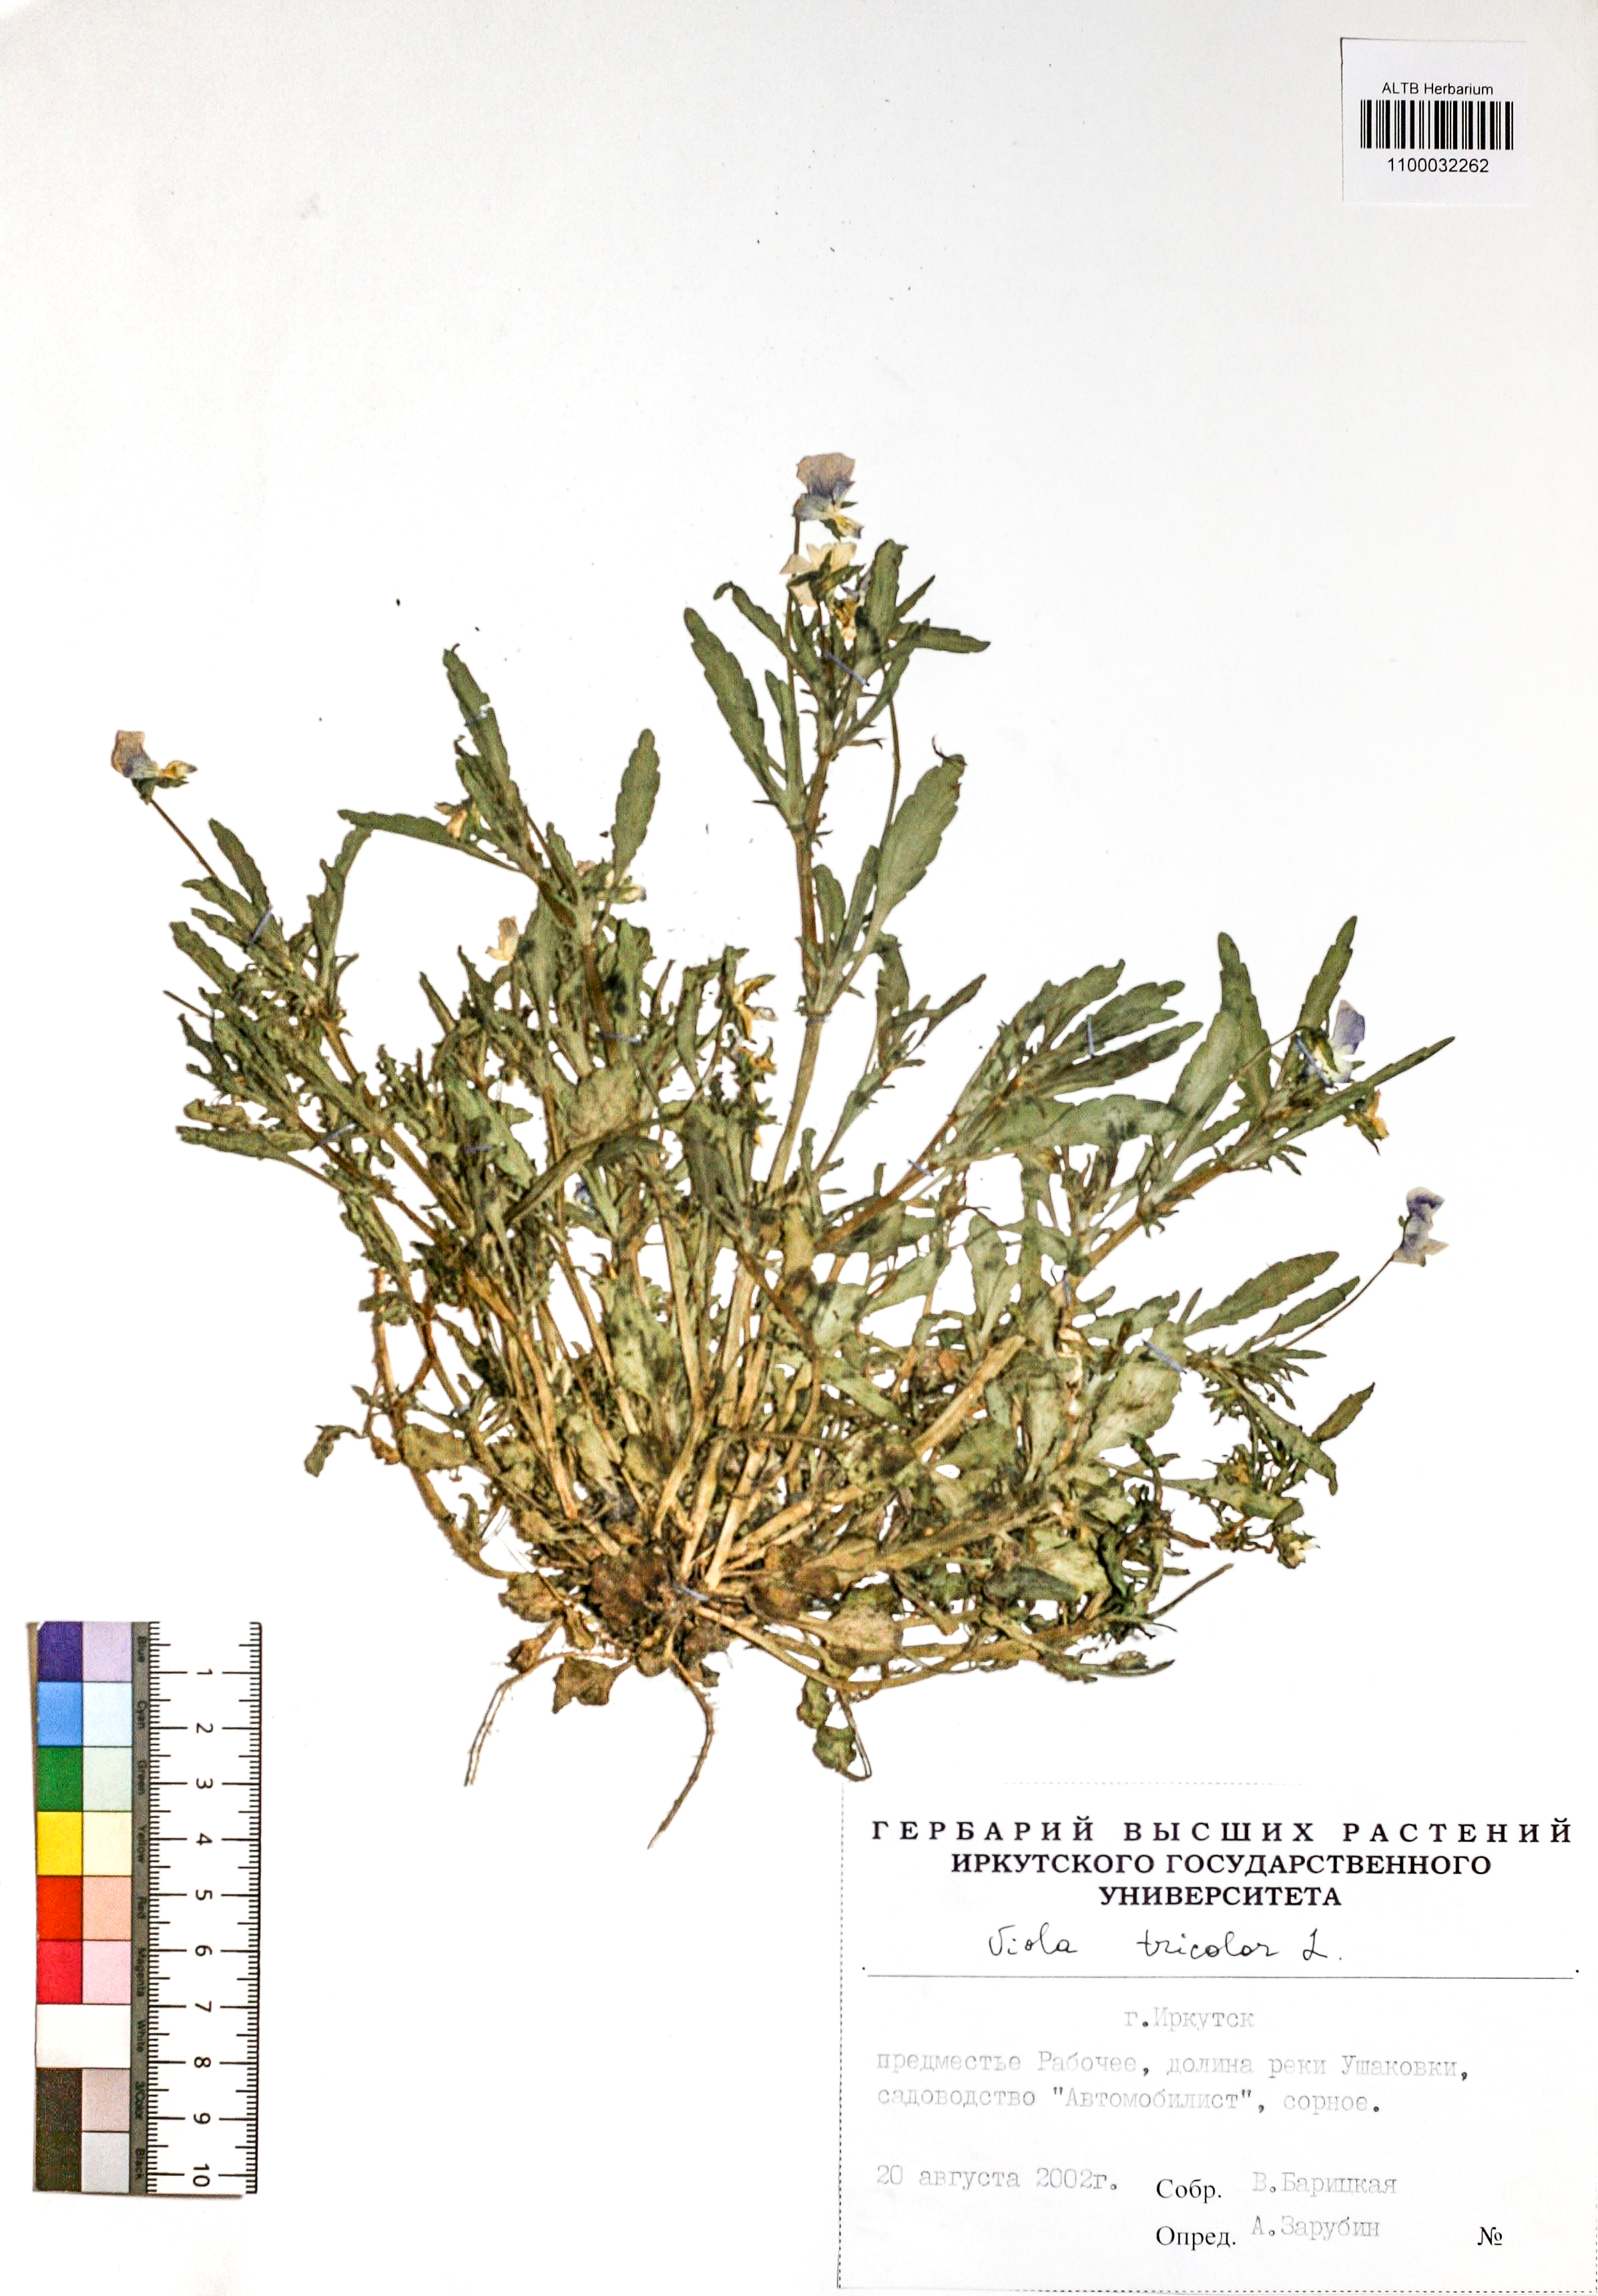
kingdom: Plantae
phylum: Tracheophyta
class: Magnoliopsida
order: Malpighiales
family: Violaceae
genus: Viola
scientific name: Viola tricolor
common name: Pansy
